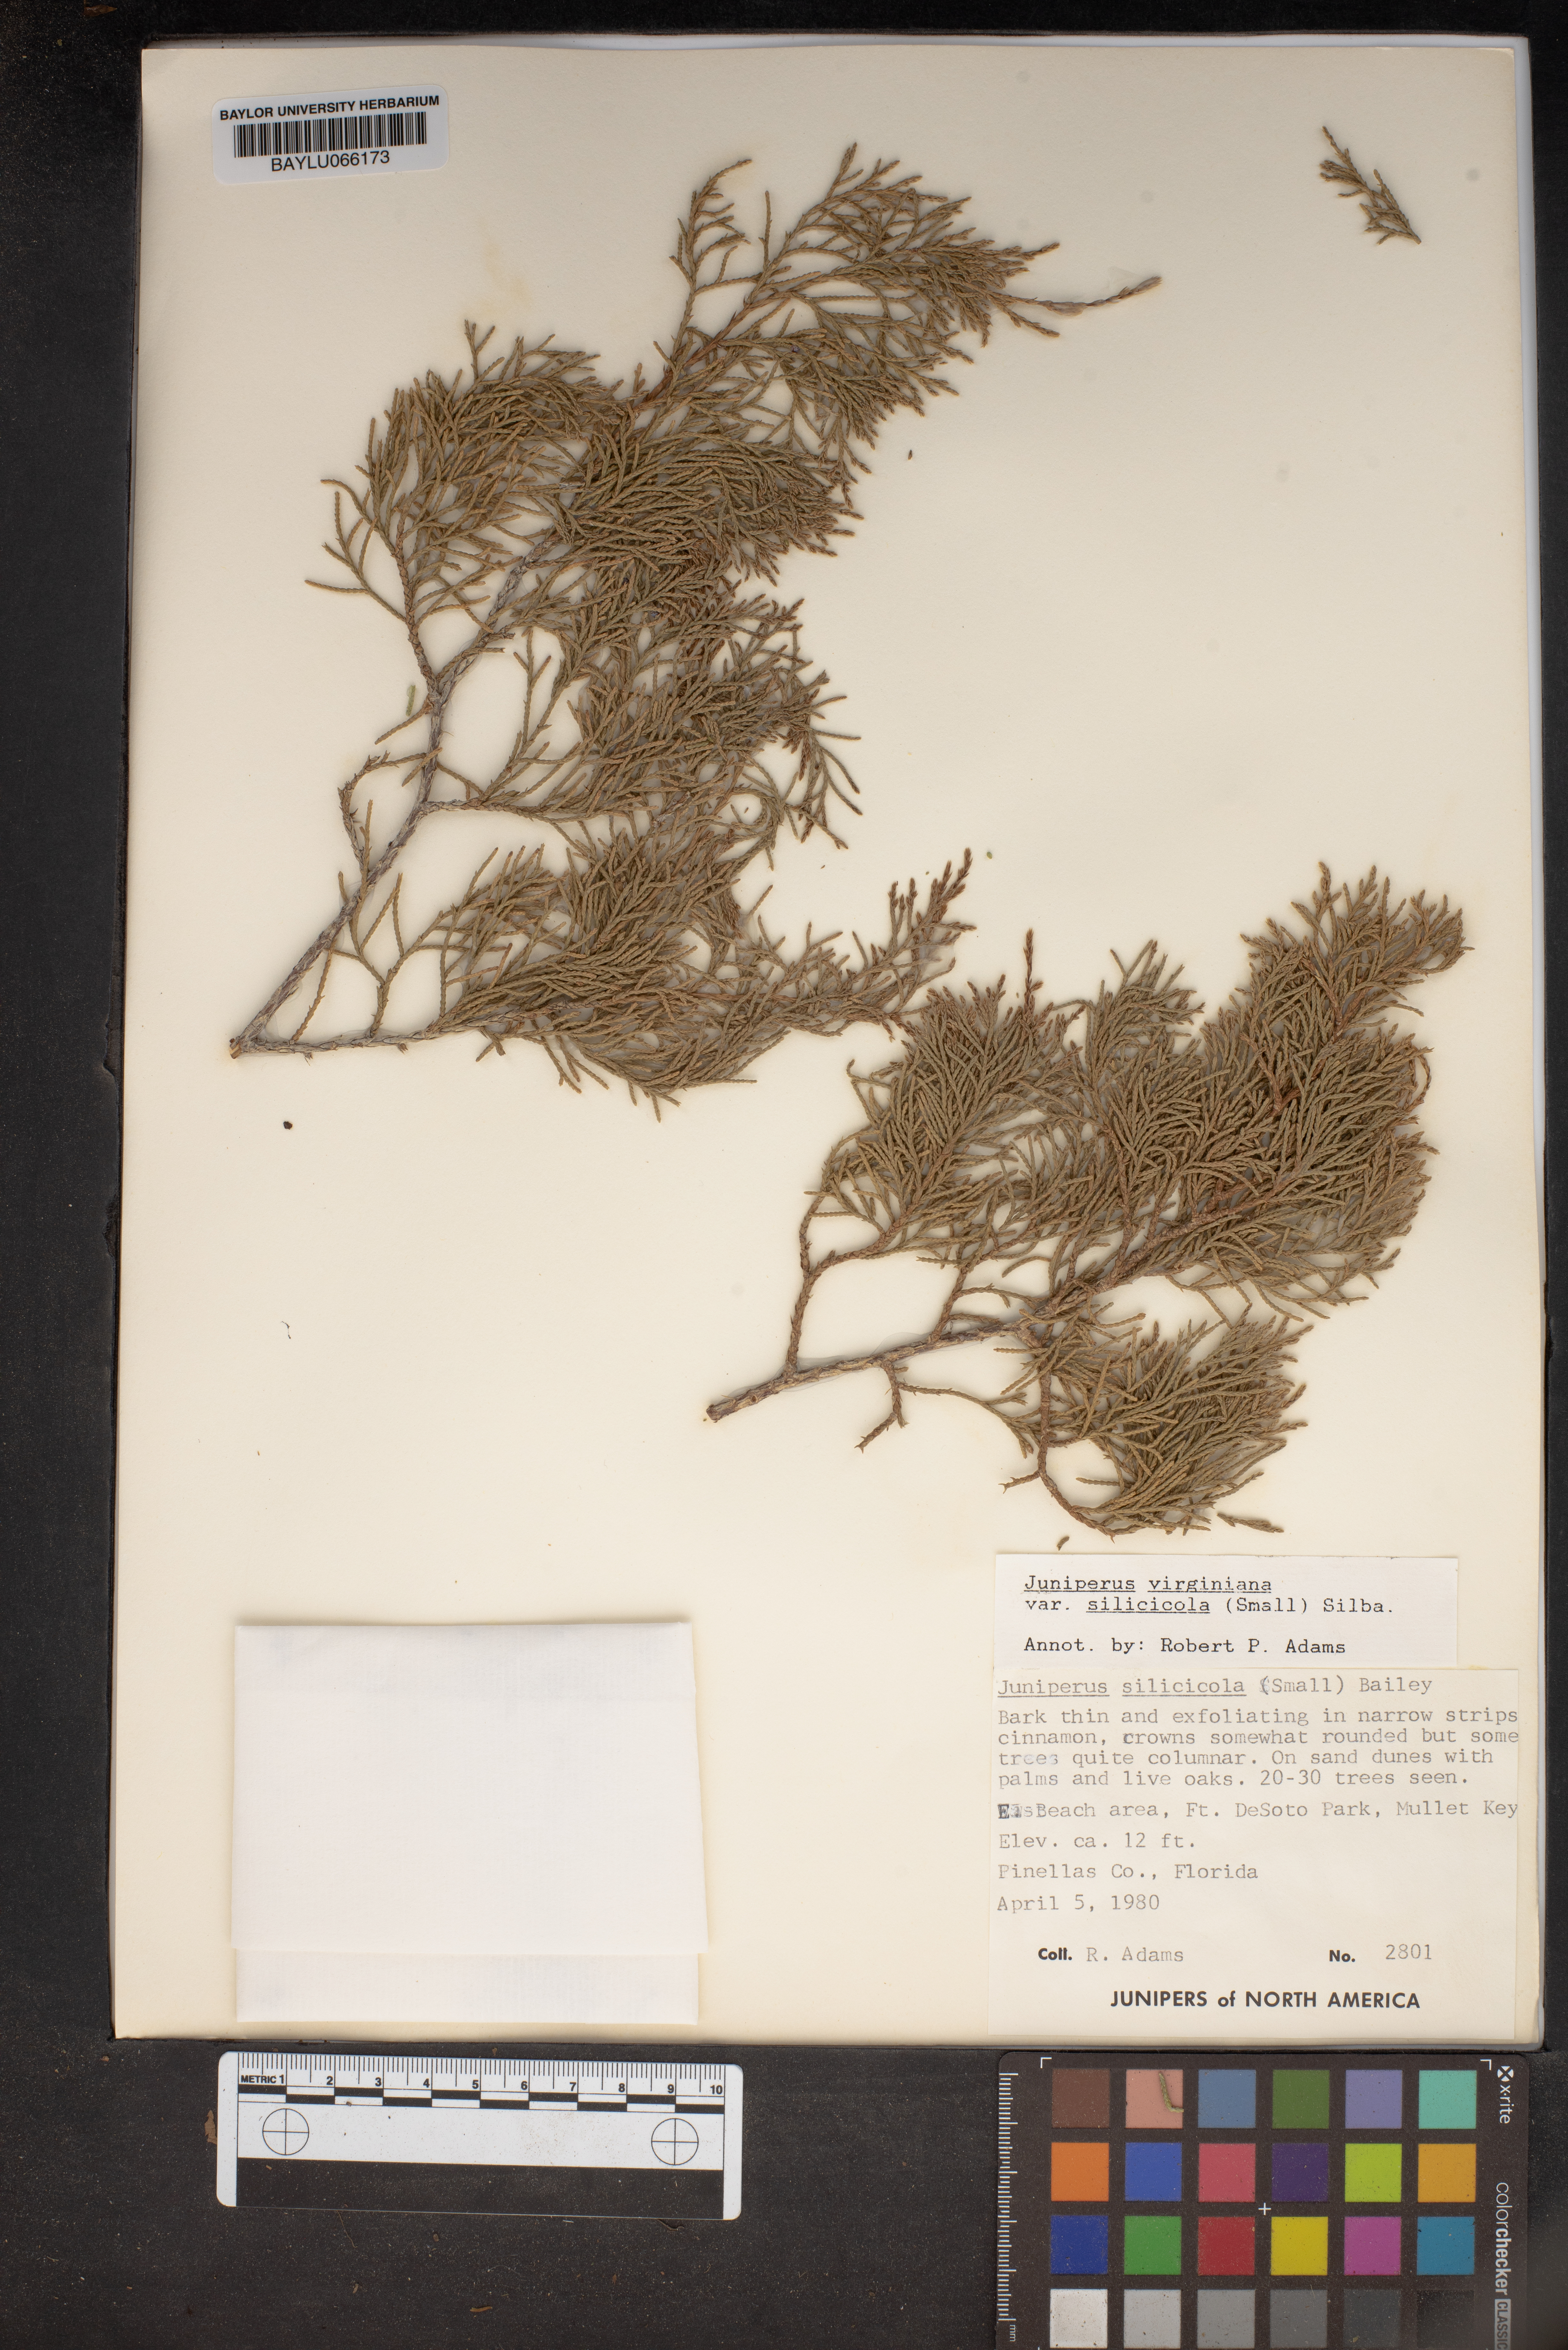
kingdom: Plantae
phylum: Tracheophyta
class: Pinopsida
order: Pinales
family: Cupressaceae
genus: Juniperus
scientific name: Juniperus virginiana
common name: Red juniper
